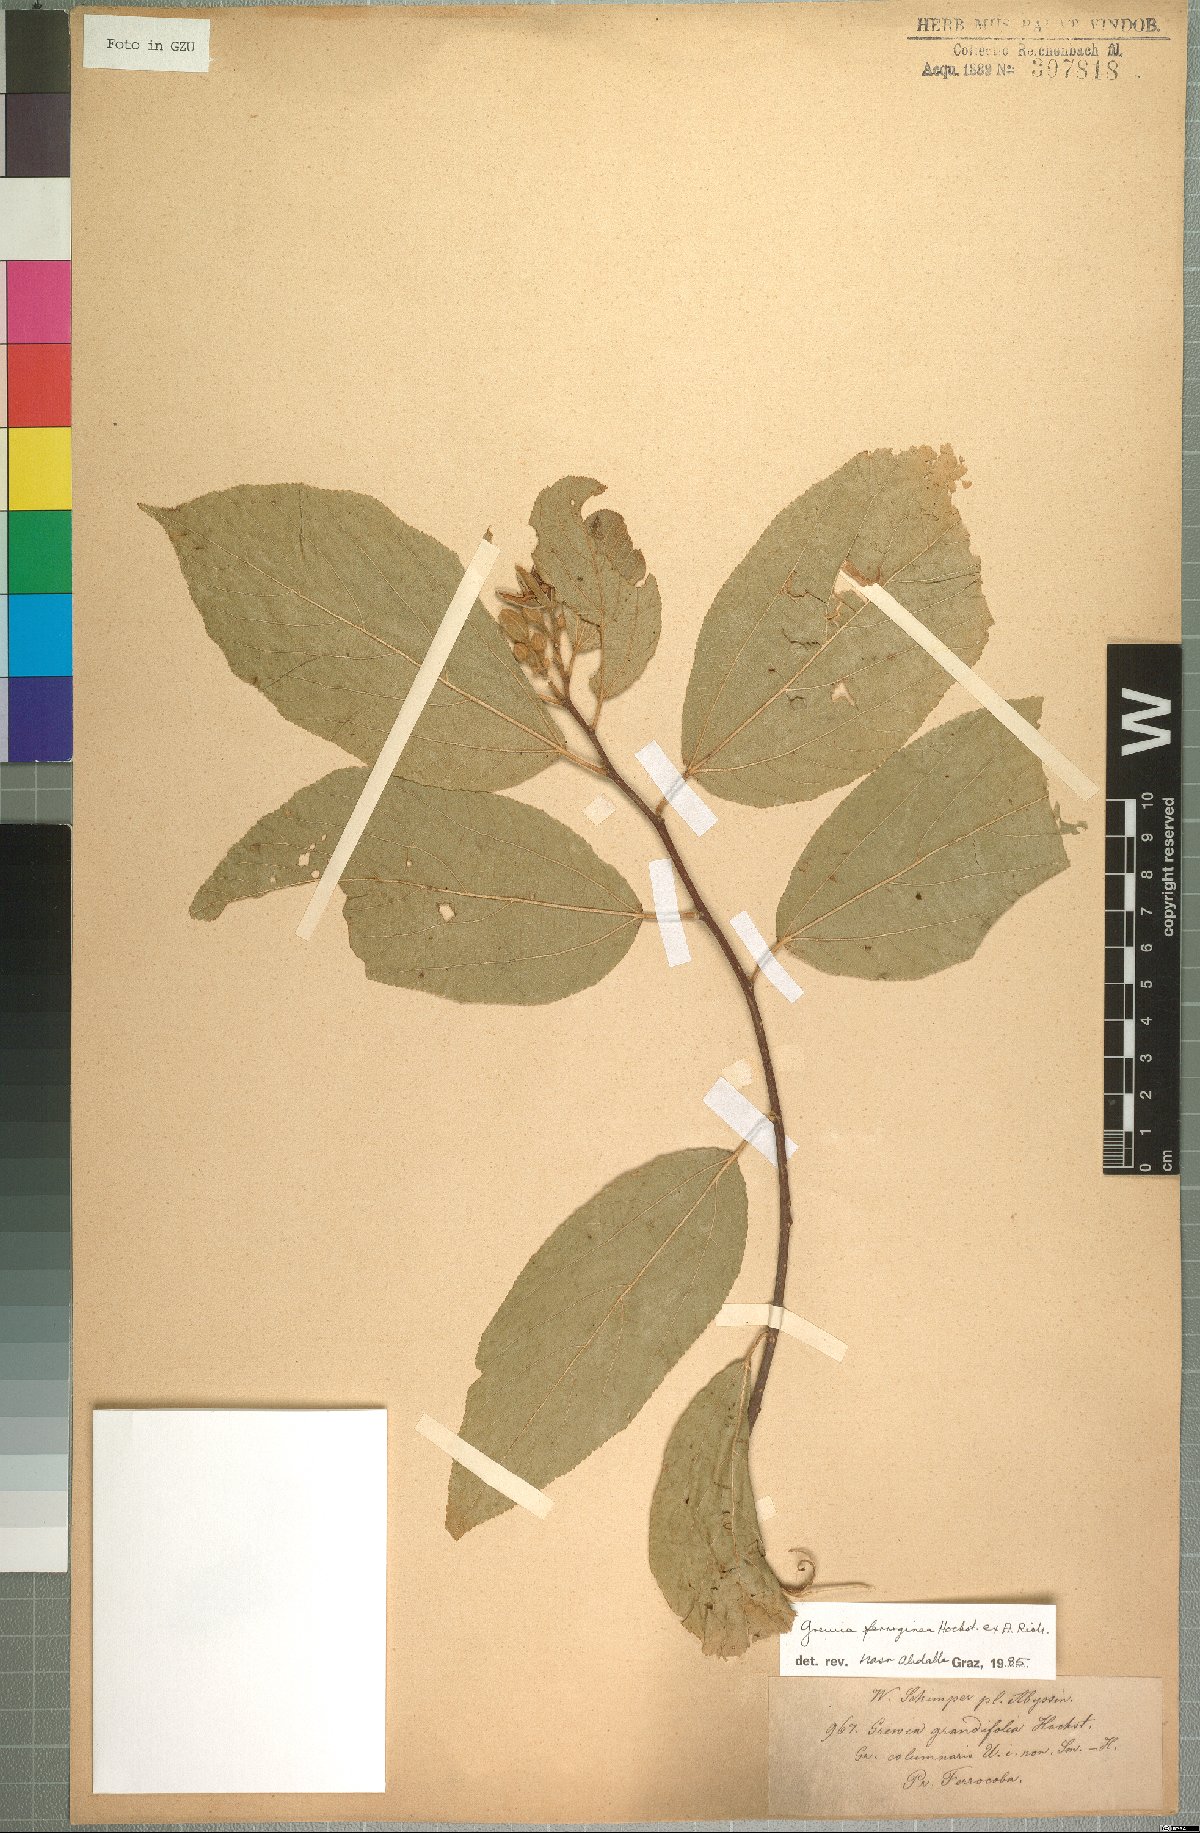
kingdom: Plantae
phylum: Tracheophyta
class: Magnoliopsida
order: Malvales
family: Malvaceae
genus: Grewia
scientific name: Grewia ferruginea
